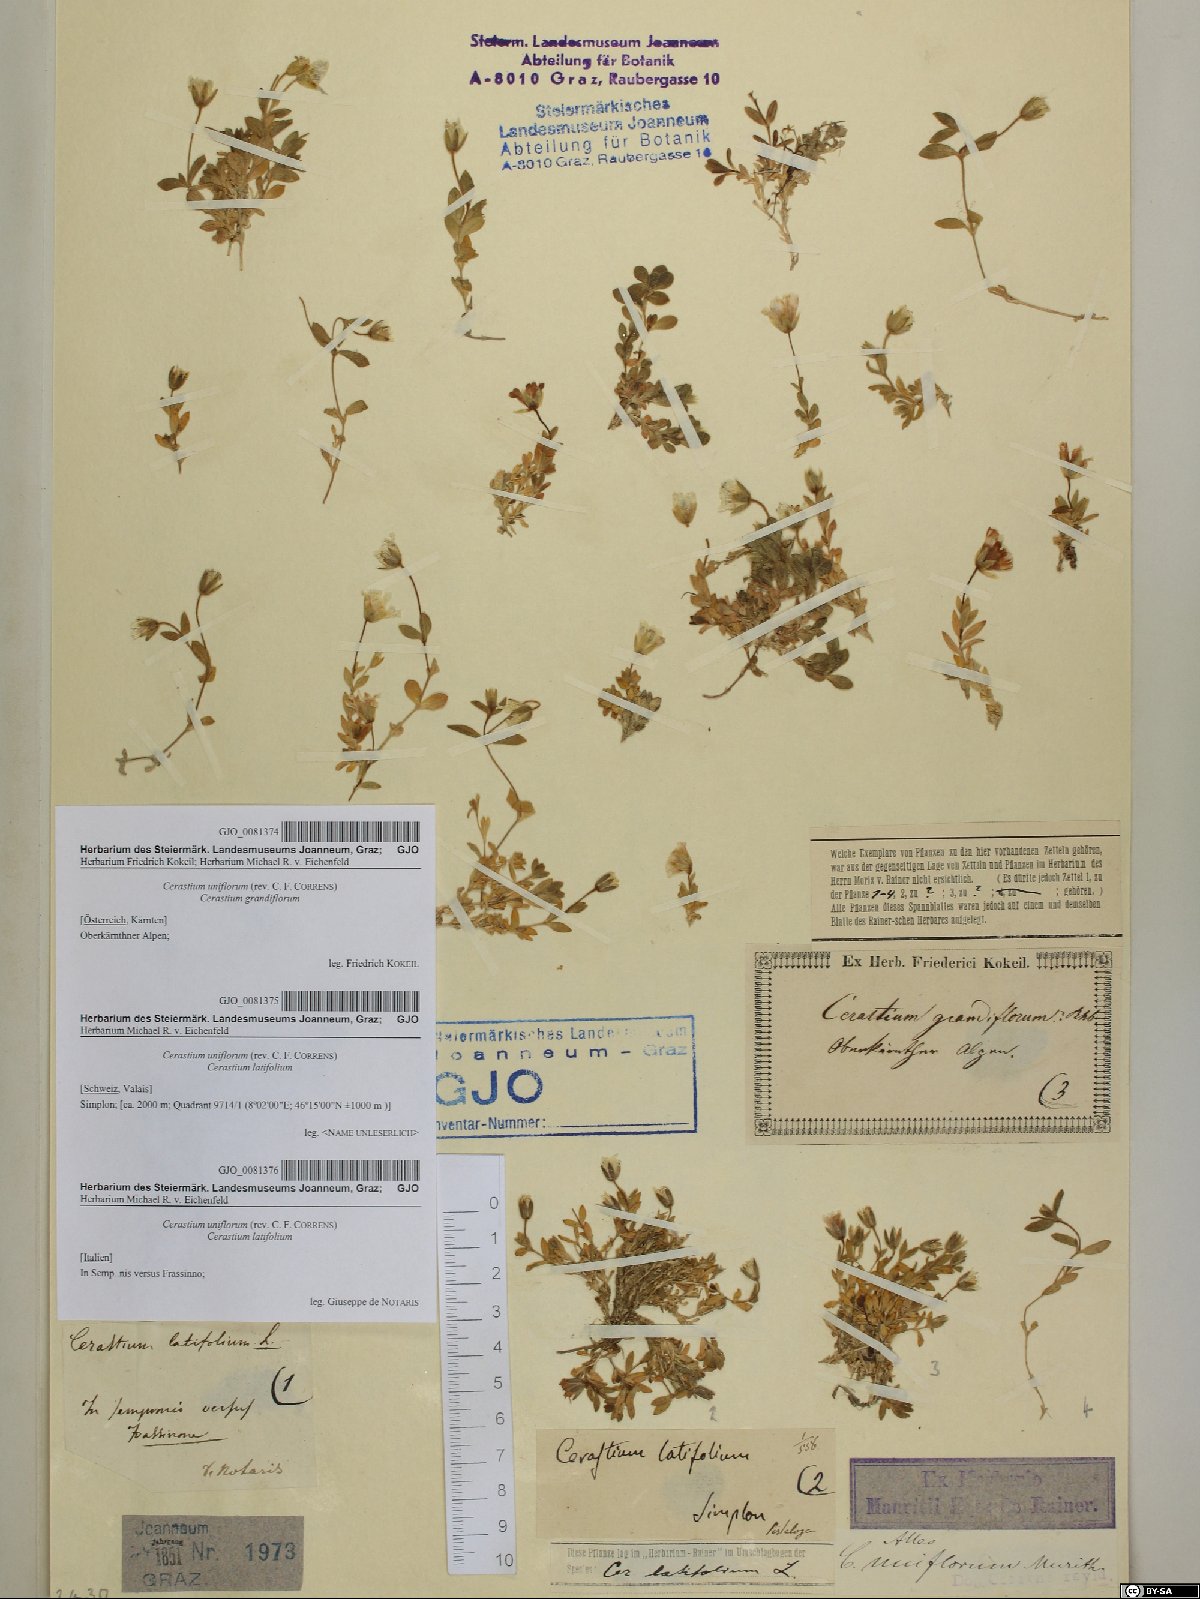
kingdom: Plantae
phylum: Tracheophyta
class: Magnoliopsida
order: Caryophyllales
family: Caryophyllaceae
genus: Cerastium
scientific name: Cerastium uniflorum
